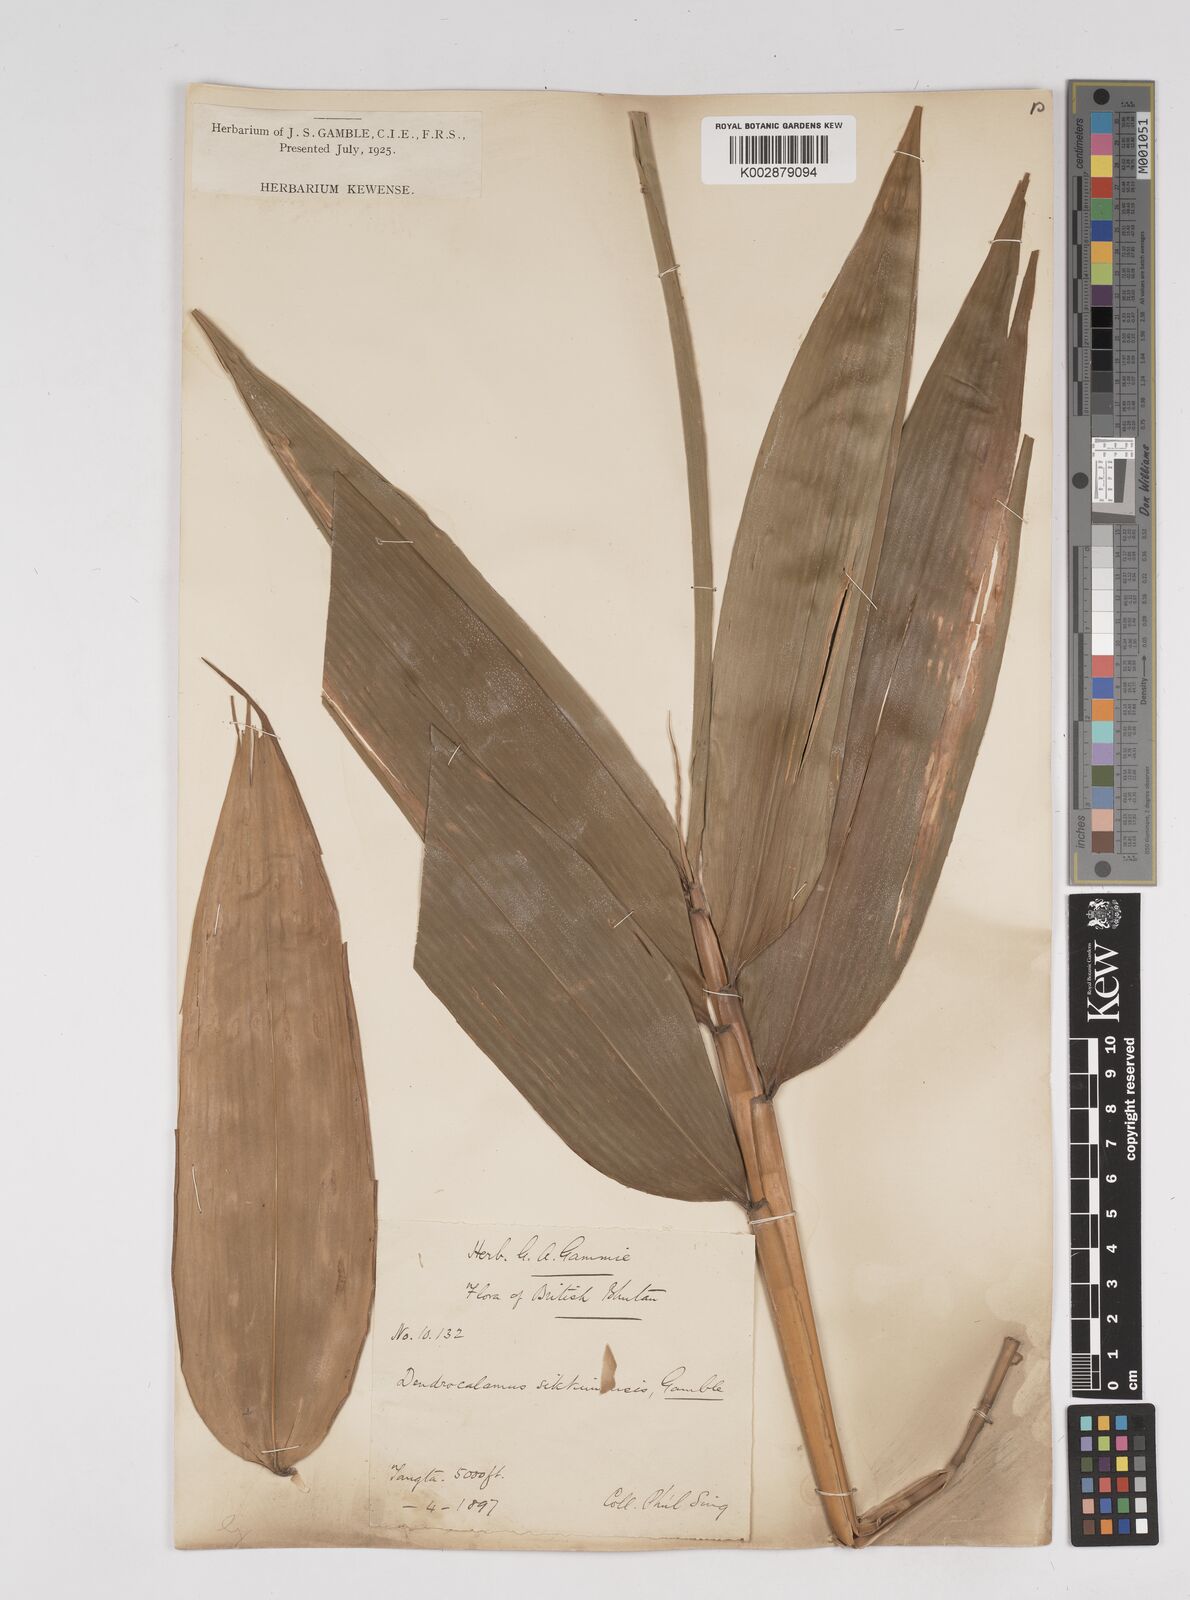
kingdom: Plantae
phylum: Tracheophyta
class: Liliopsida
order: Poales
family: Poaceae
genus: Dendrocalamus
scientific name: Dendrocalamus sikkimensis
